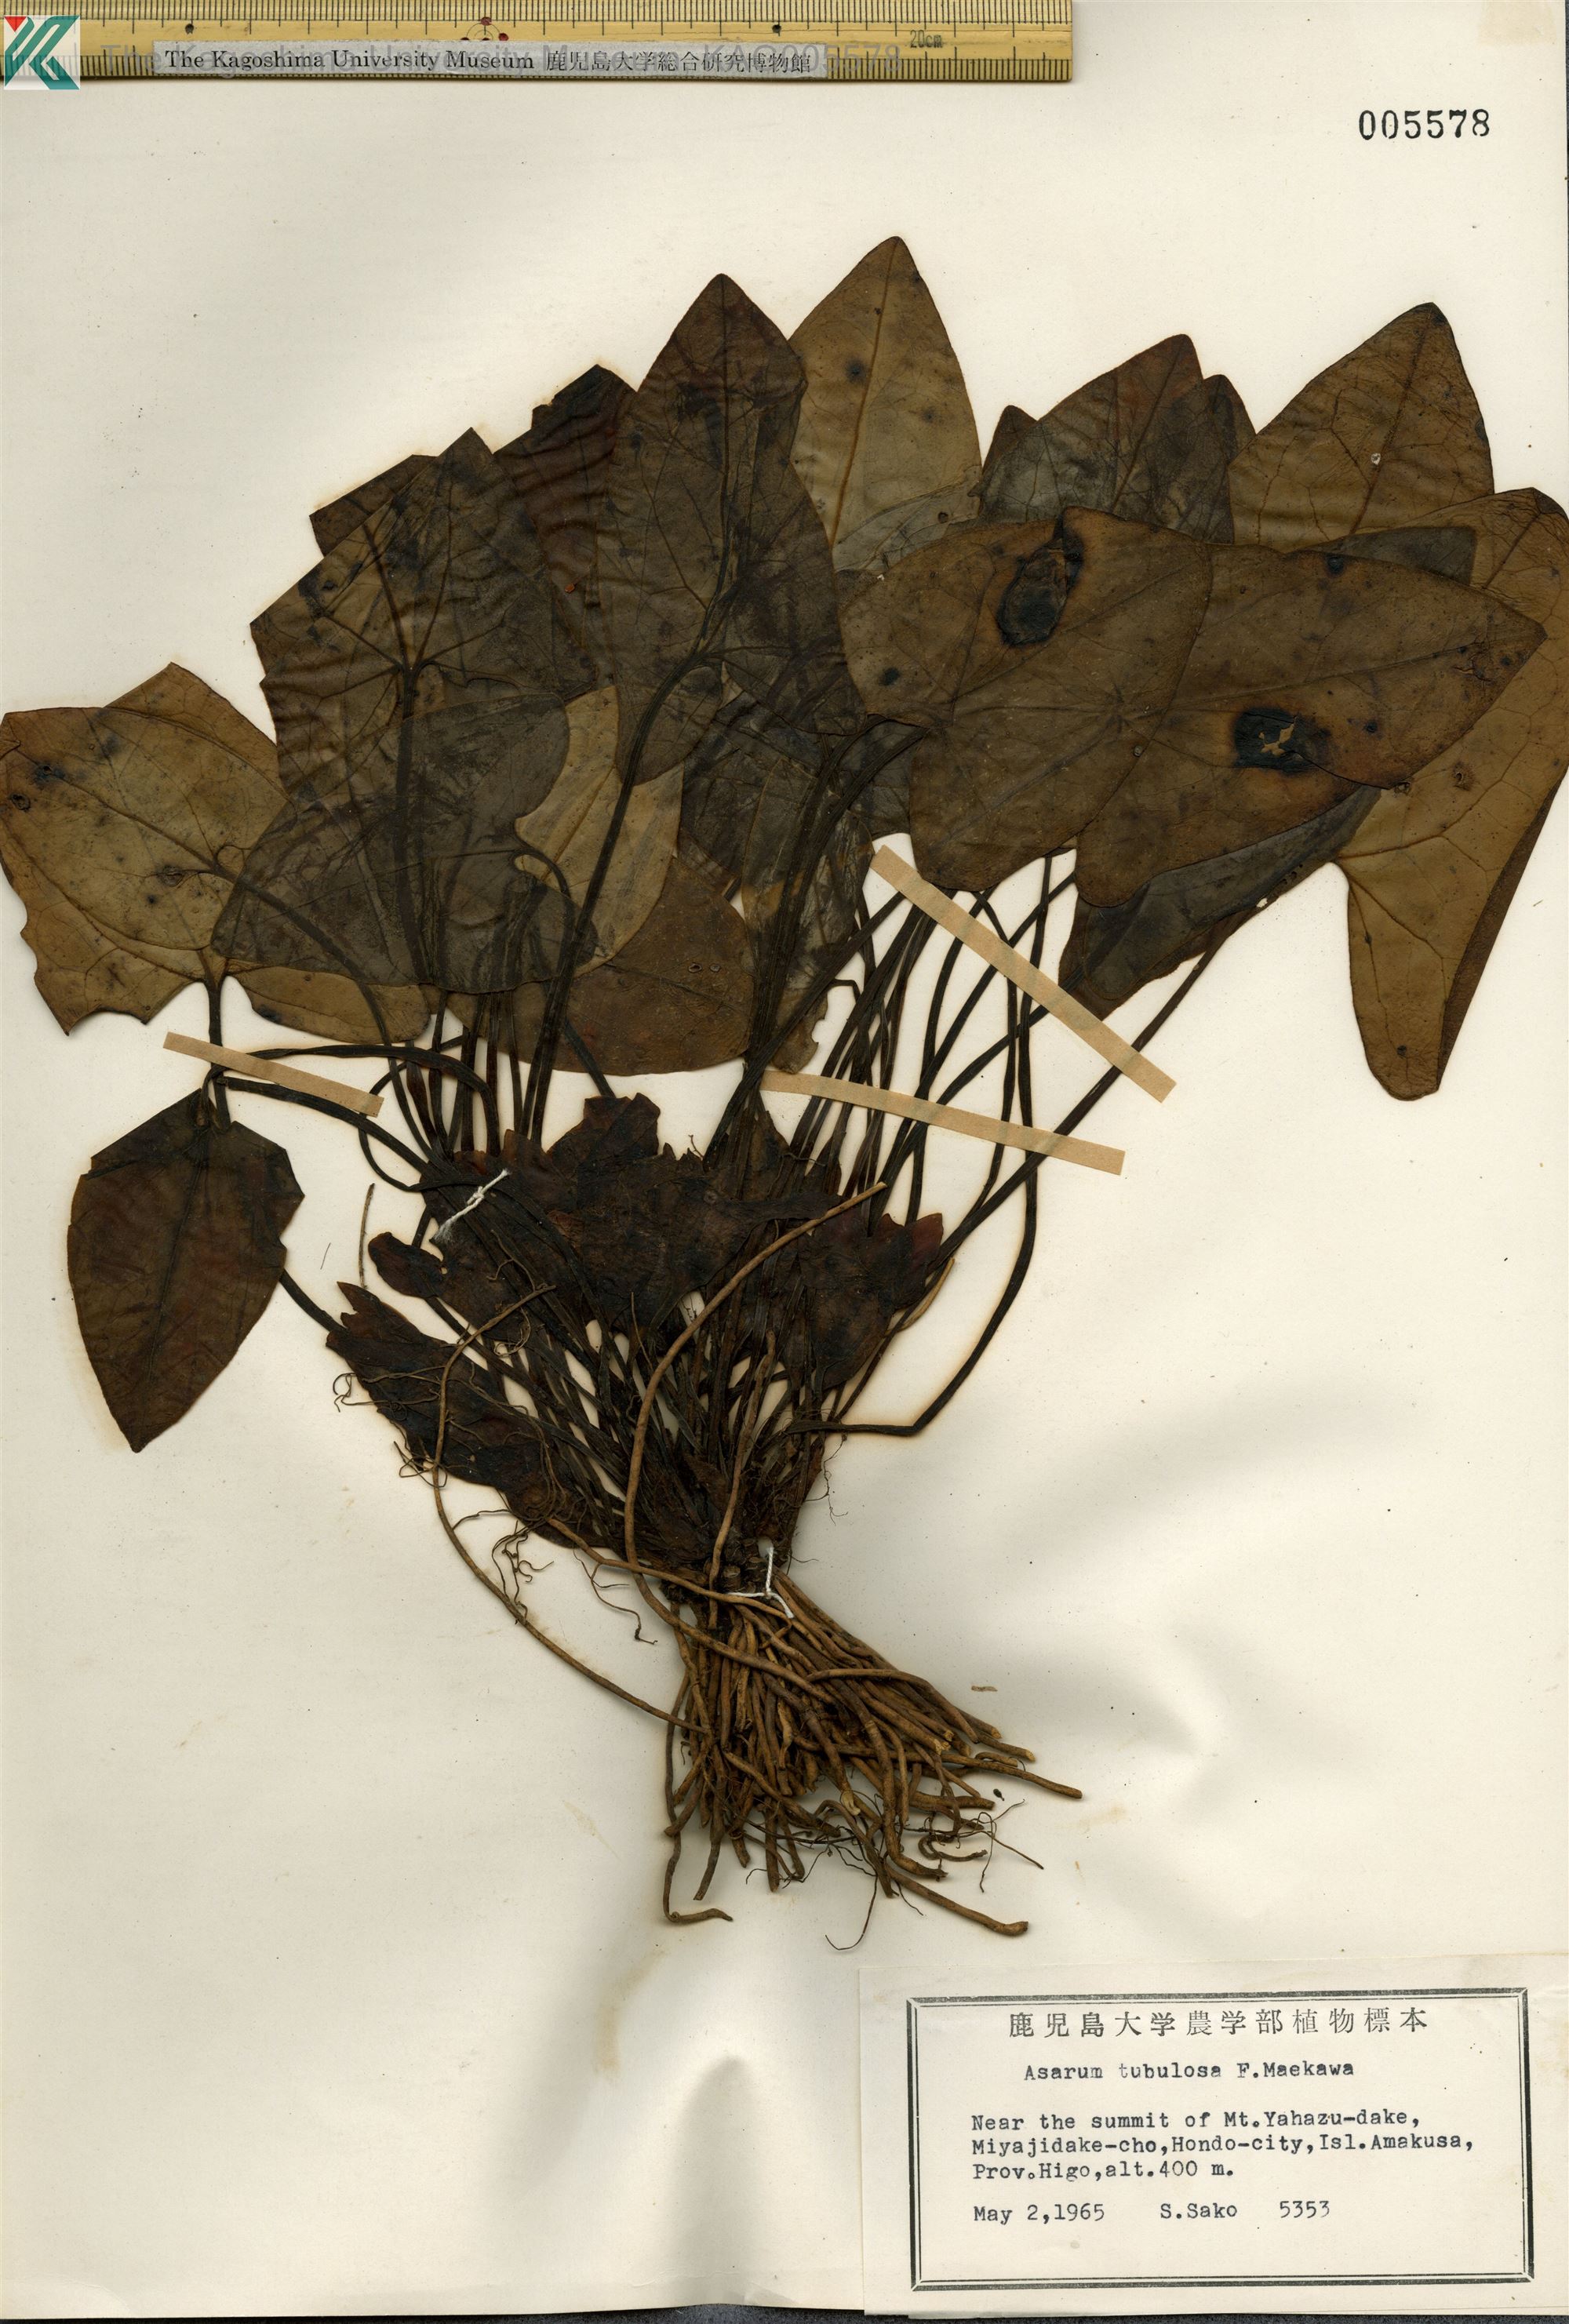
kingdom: Plantae
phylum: Tracheophyta
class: Magnoliopsida
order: Piperales
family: Aristolochiaceae
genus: Asarum
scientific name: Asarum kiusianum
